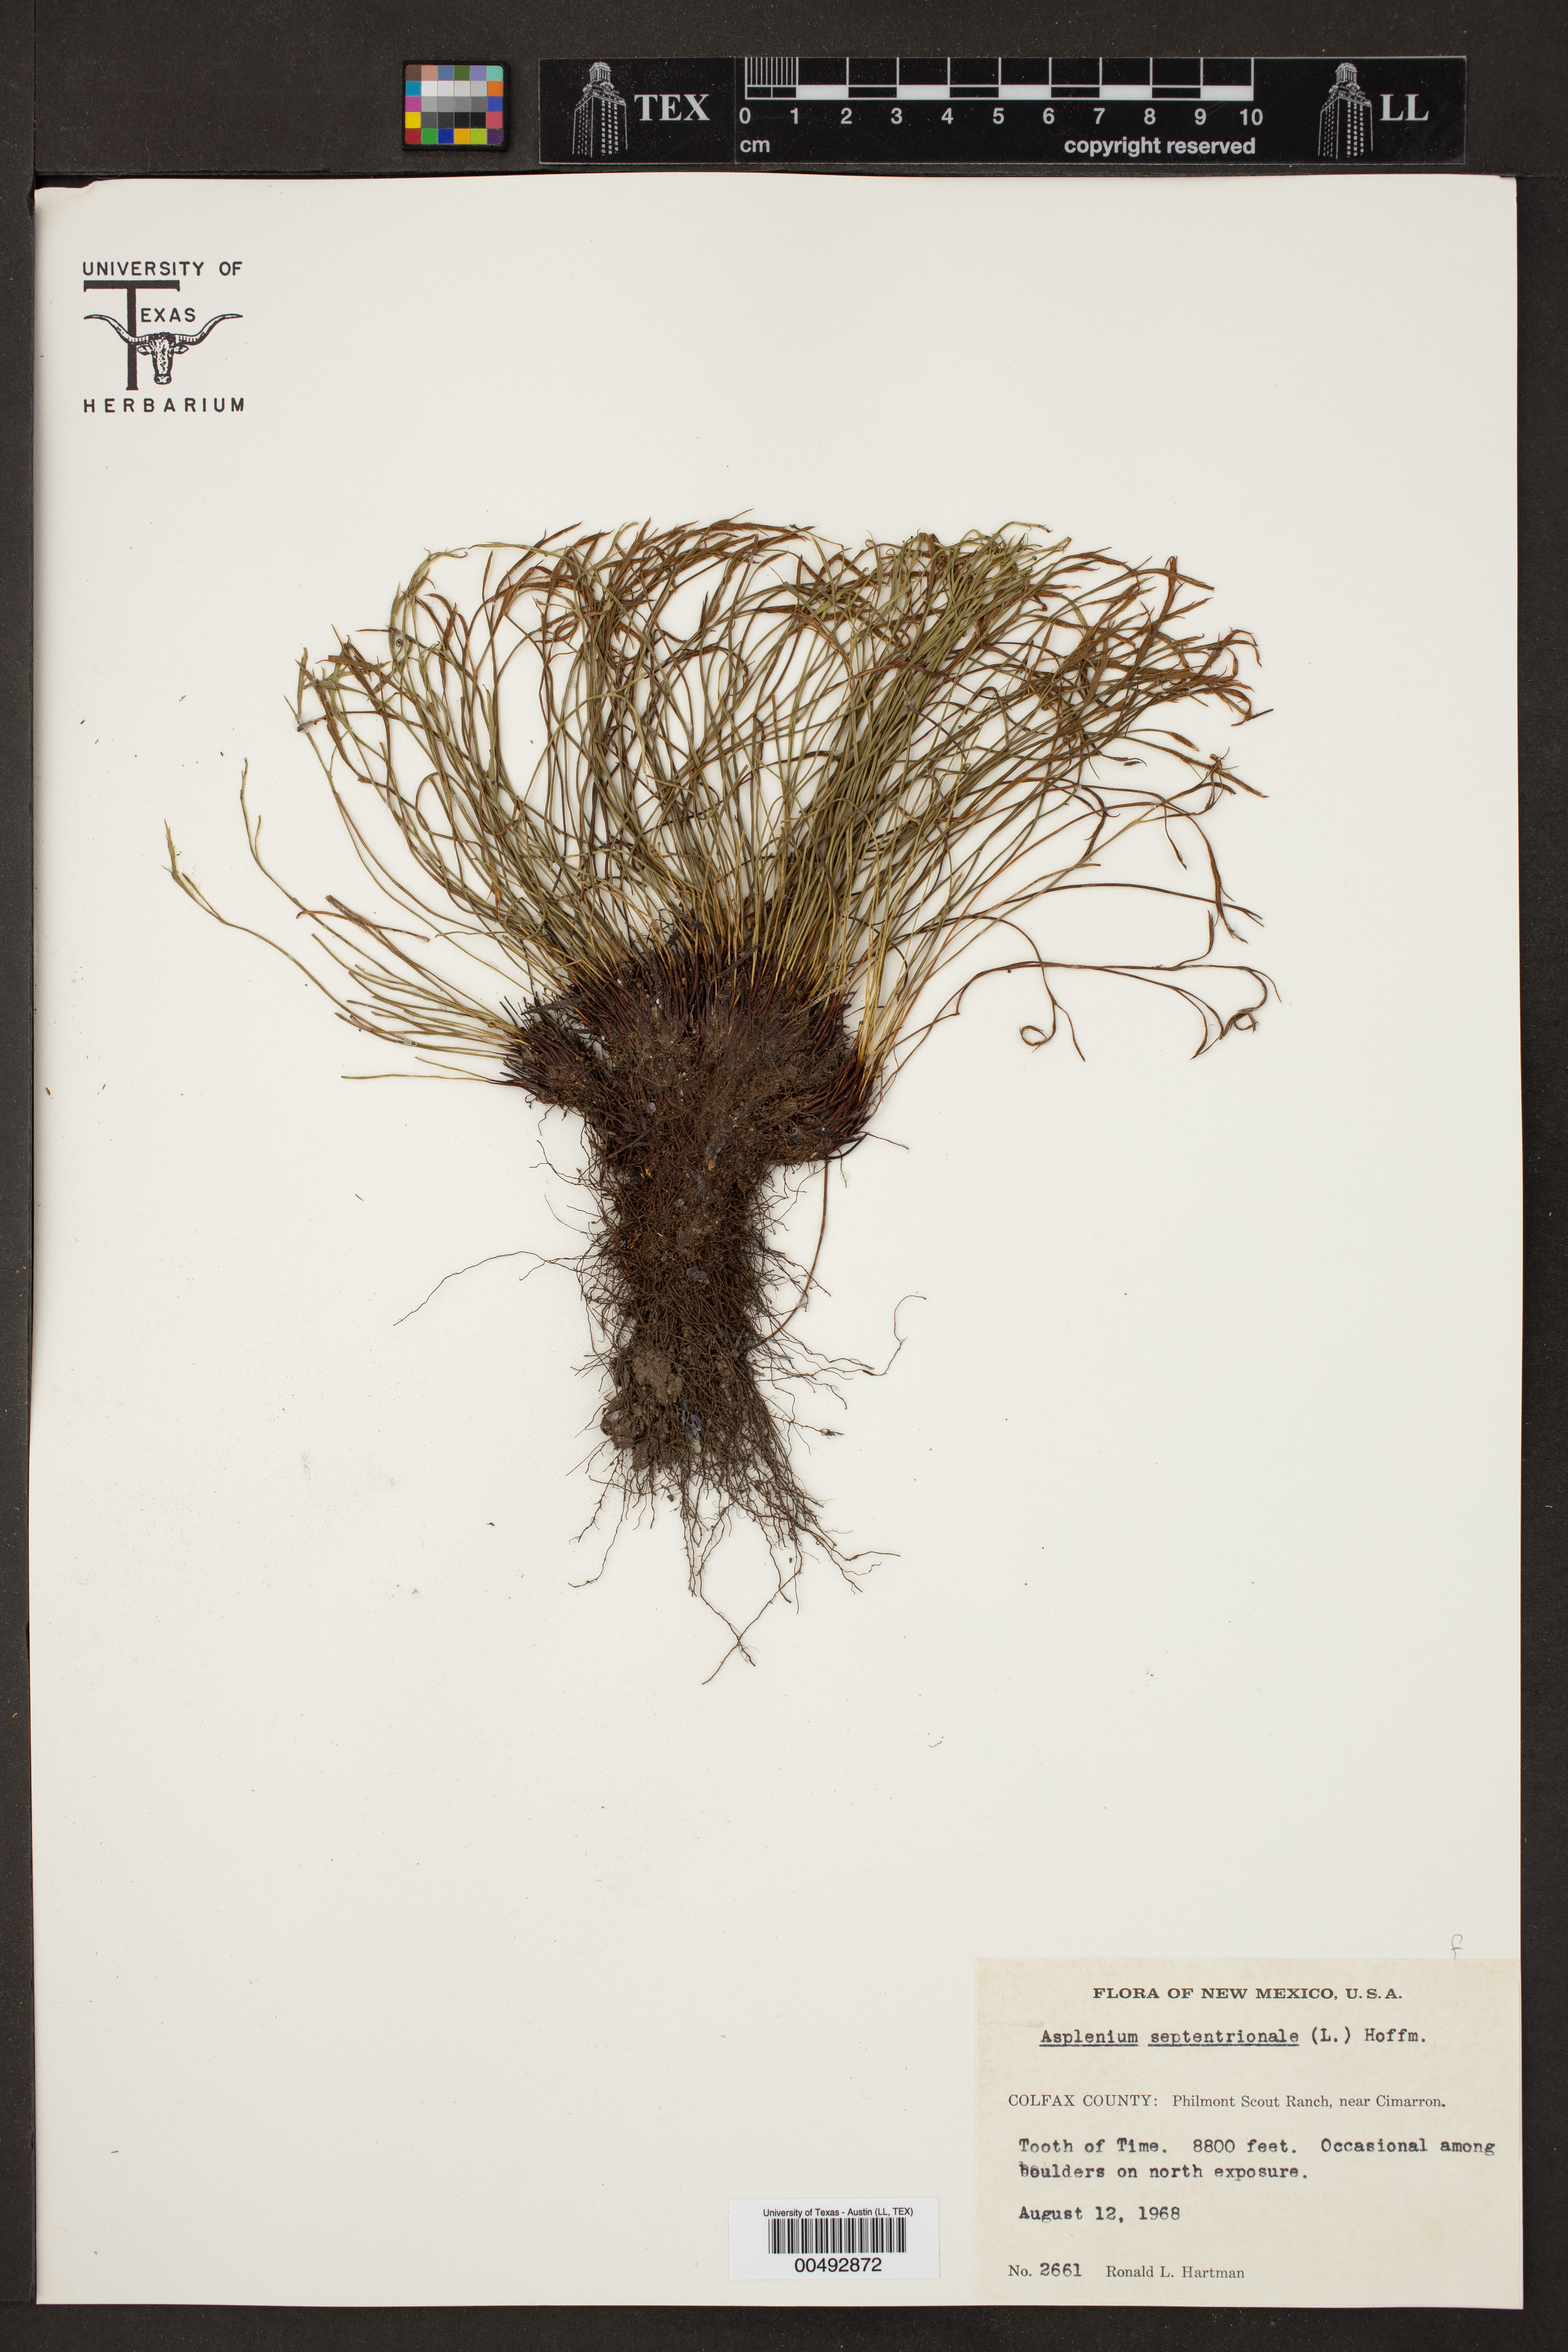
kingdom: Plantae
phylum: Tracheophyta
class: Polypodiopsida
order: Polypodiales
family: Aspleniaceae
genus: Asplenium
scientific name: Asplenium septentrionale
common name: Forked spleenwort
